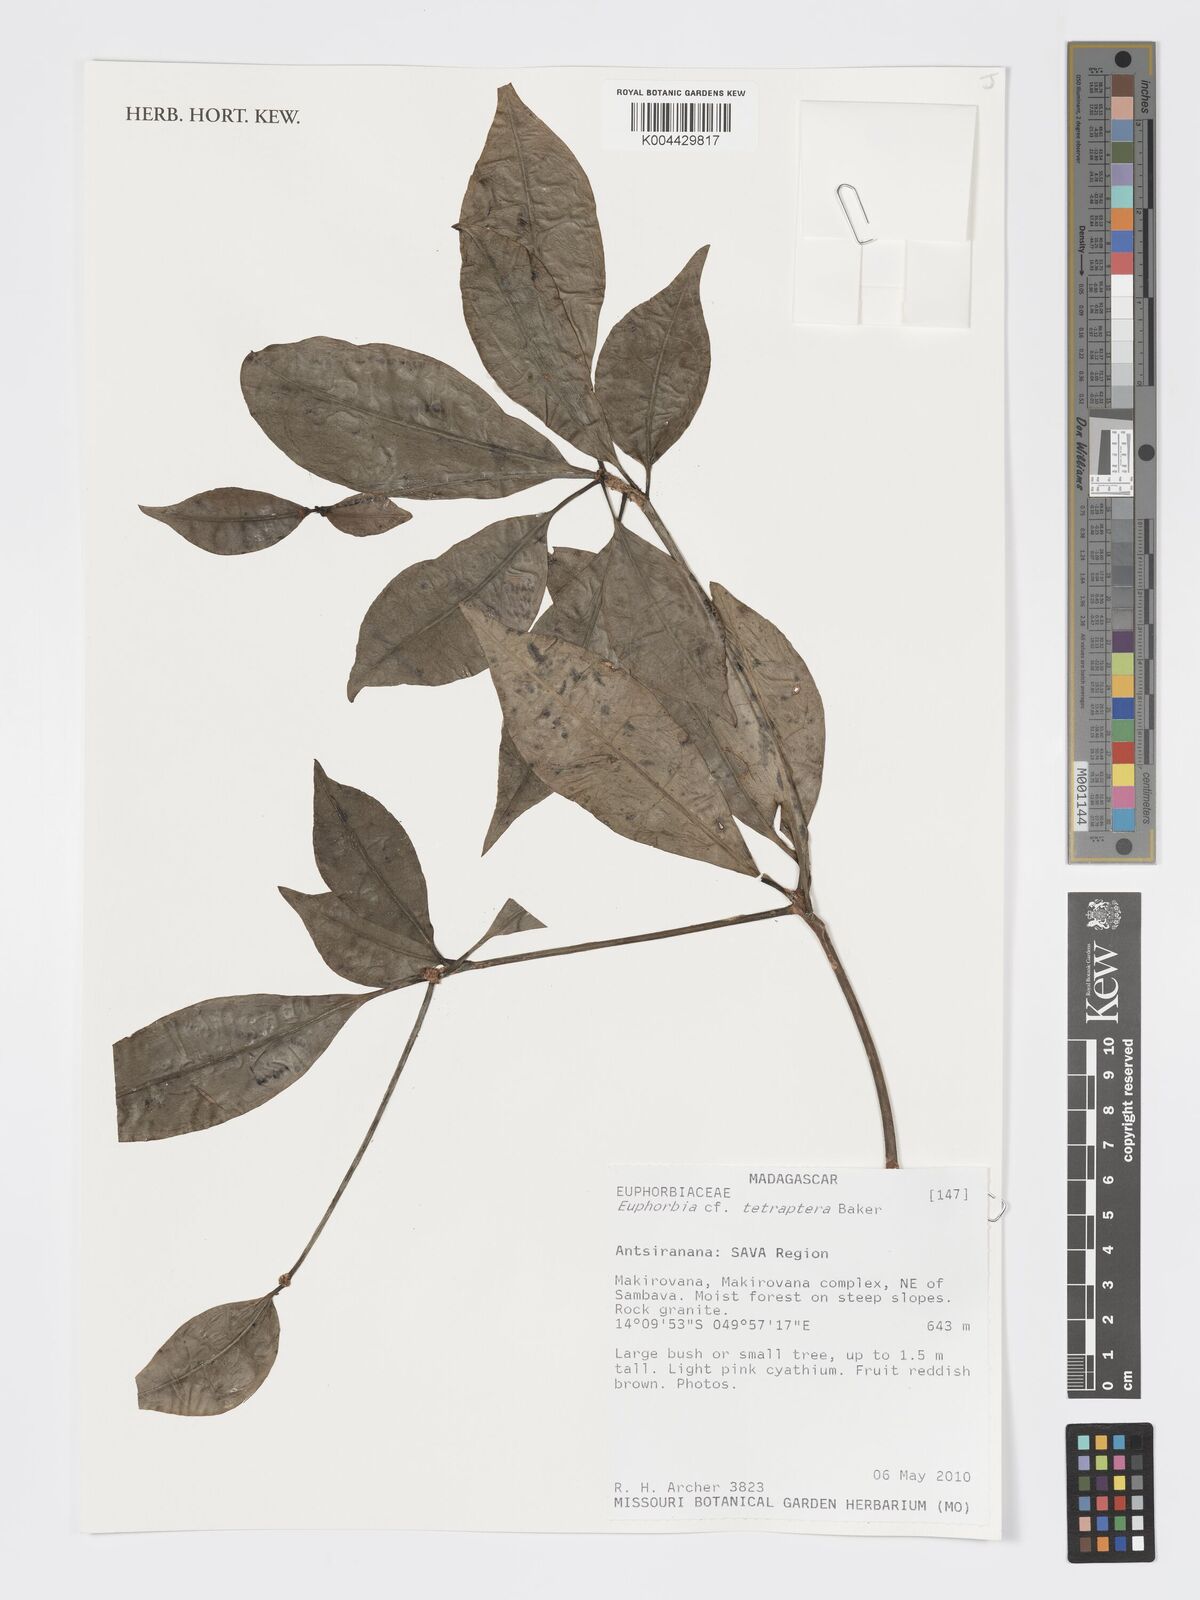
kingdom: Plantae
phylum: Tracheophyta
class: Magnoliopsida
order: Malpighiales
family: Euphorbiaceae
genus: Euphorbia
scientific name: Euphorbia tetraptera
